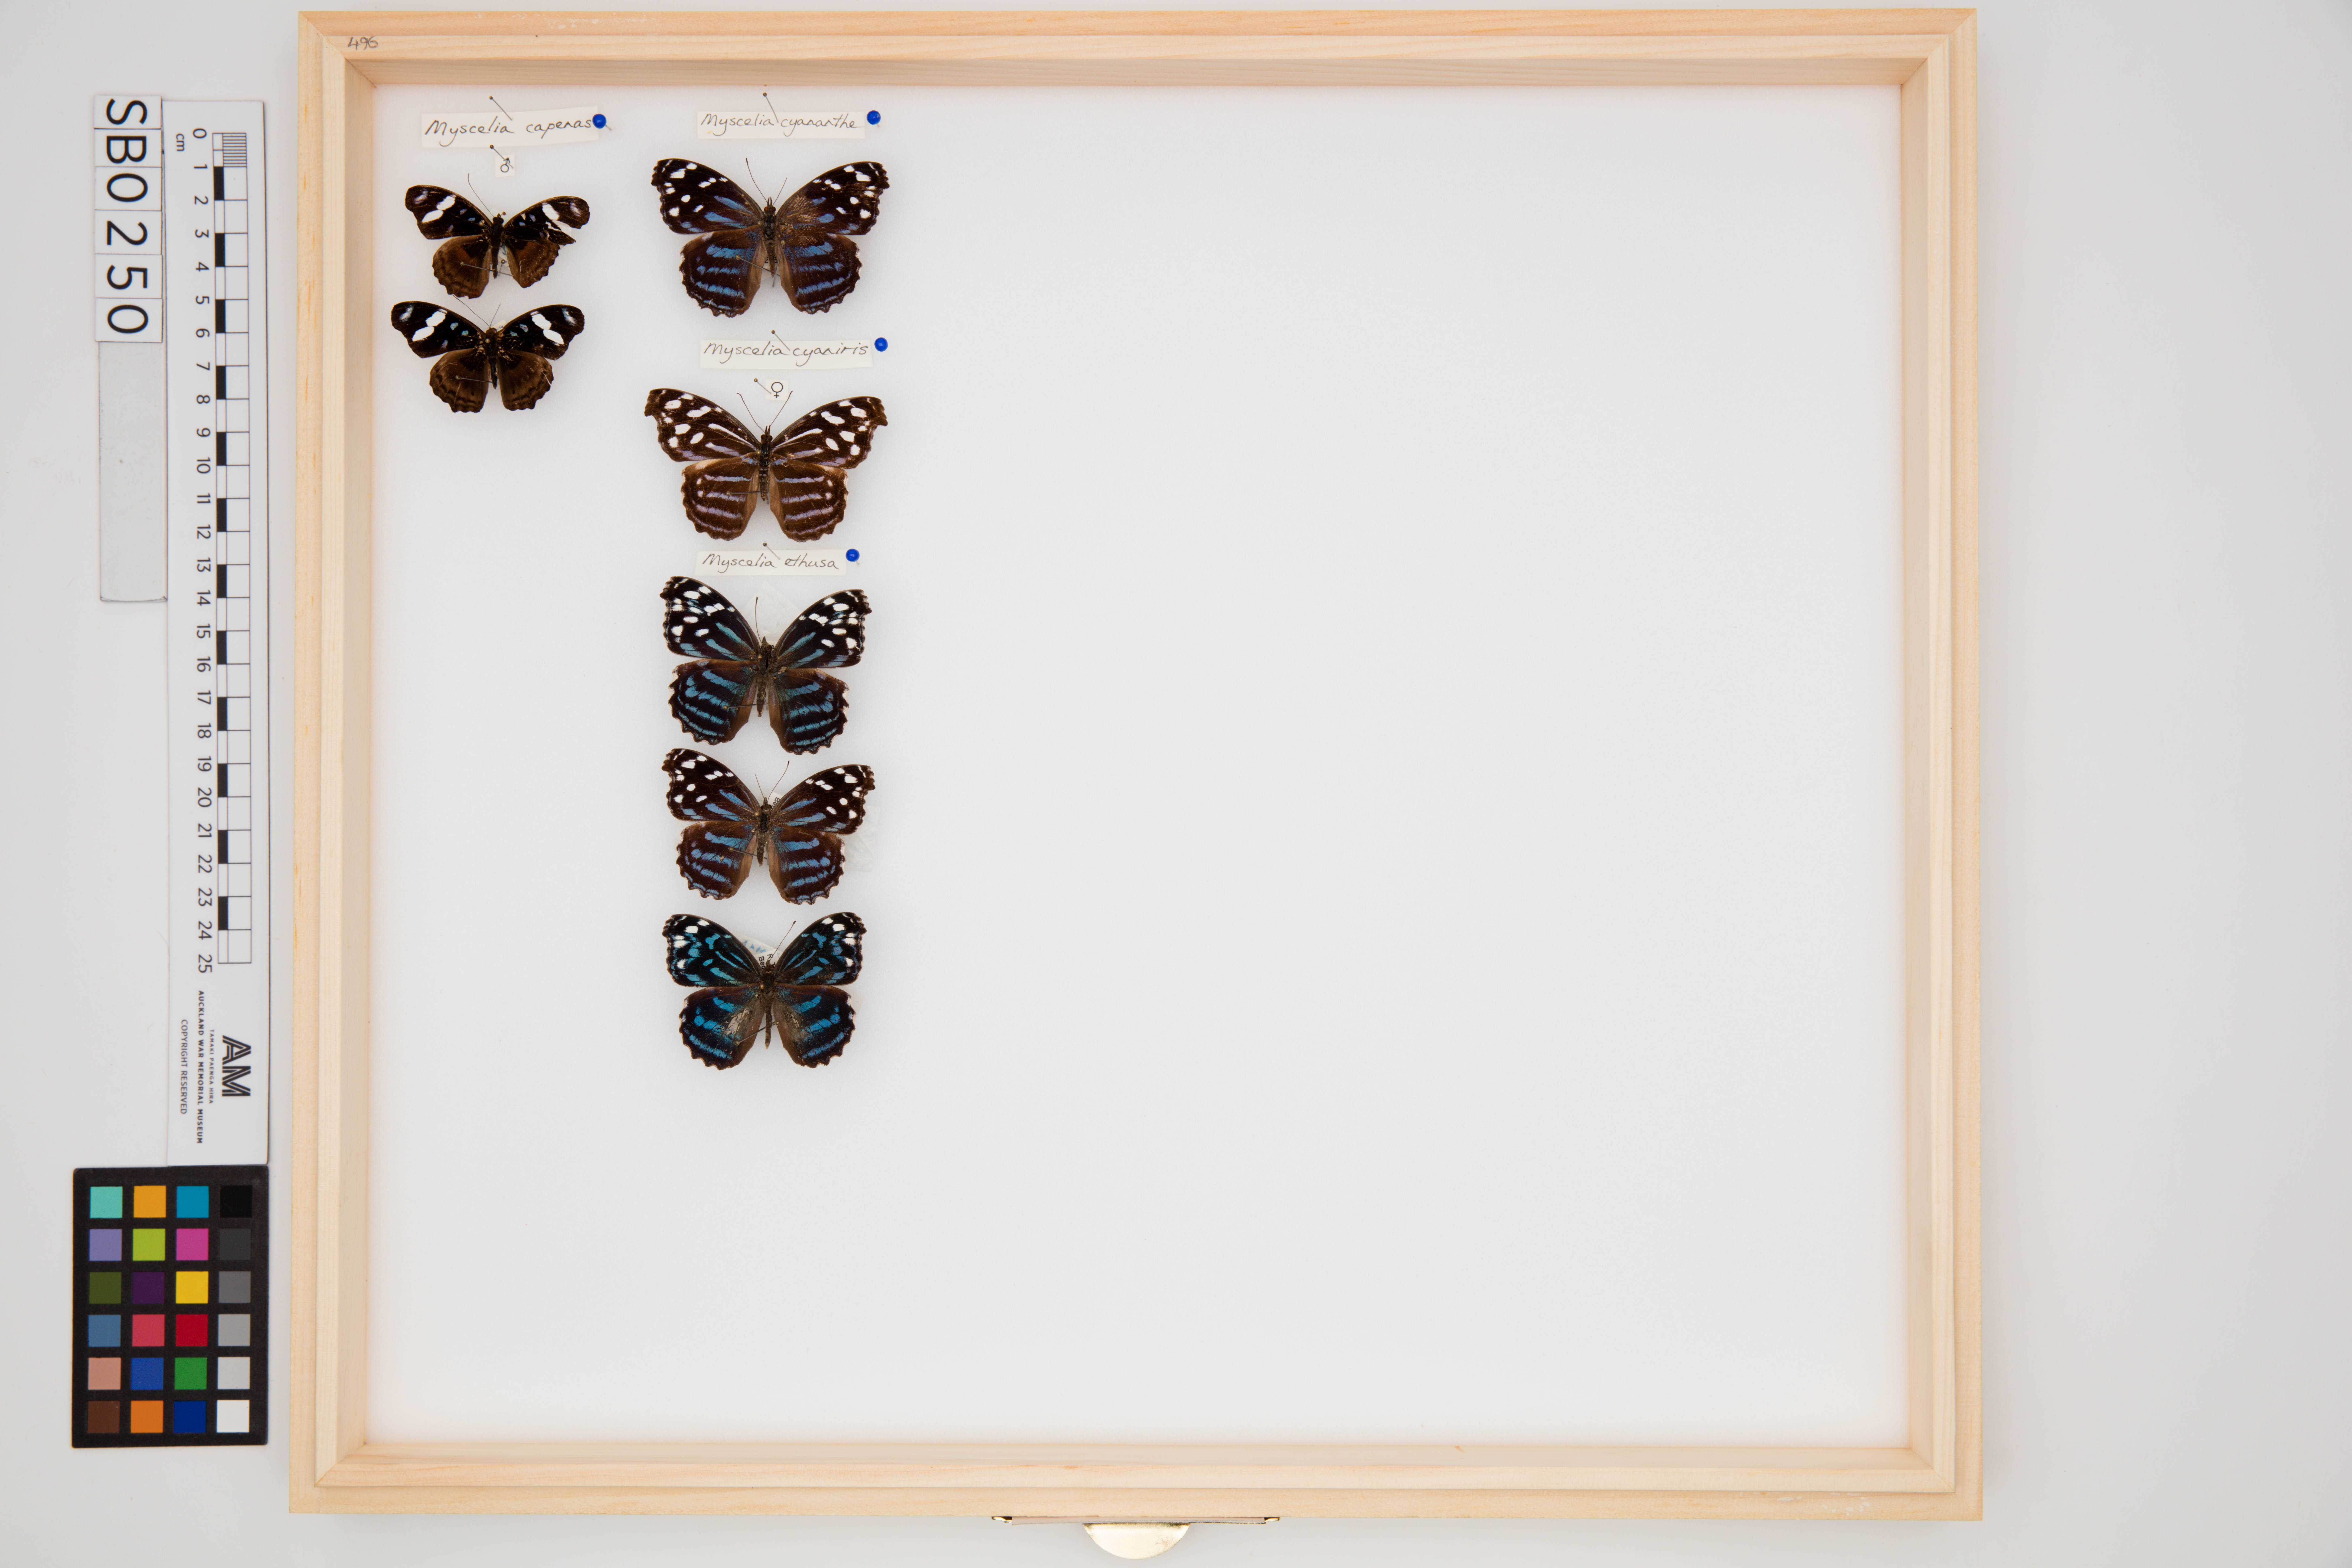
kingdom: Animalia
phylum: Arthropoda
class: Insecta
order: Lepidoptera
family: Nymphalidae
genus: Myscelia
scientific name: Myscelia cyaniris
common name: Whitened bluewing
